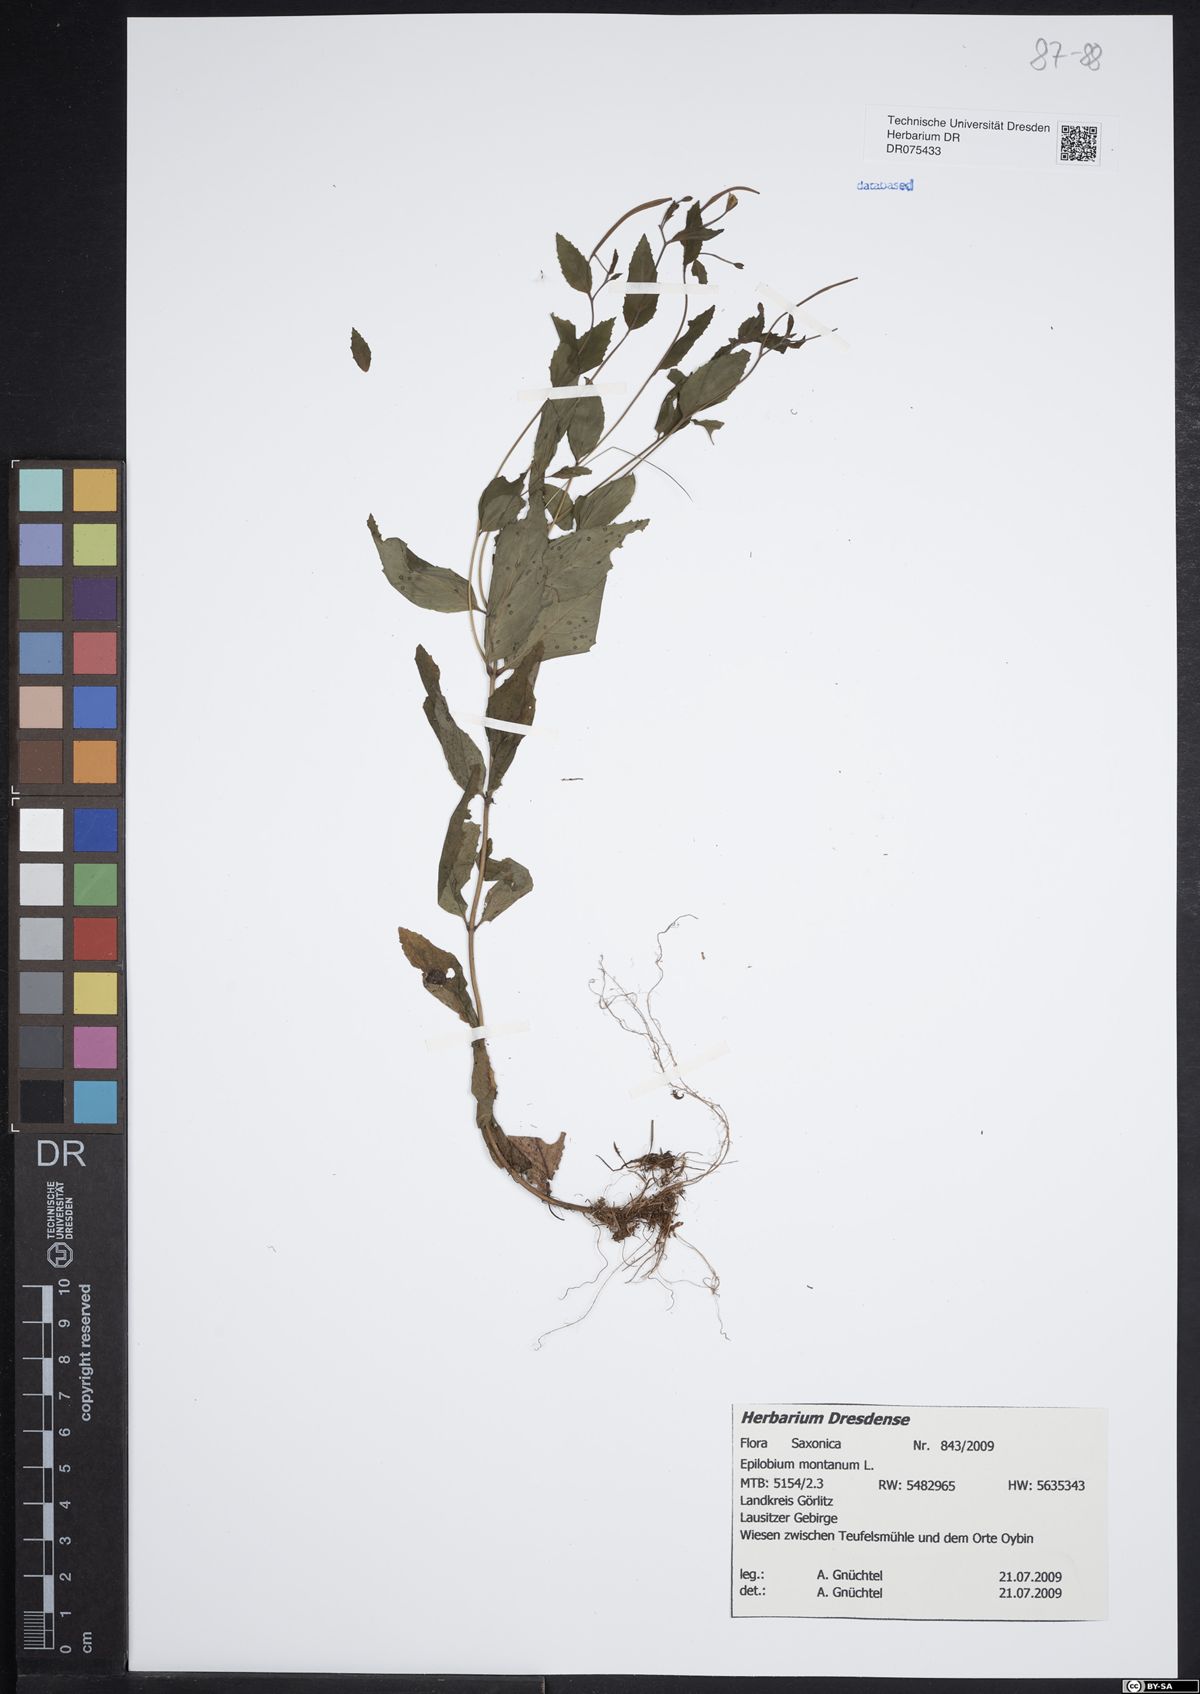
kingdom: Plantae
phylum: Tracheophyta
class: Magnoliopsida
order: Myrtales
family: Onagraceae
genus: Epilobium
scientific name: Epilobium montanum
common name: Broad-leaved willowherb
